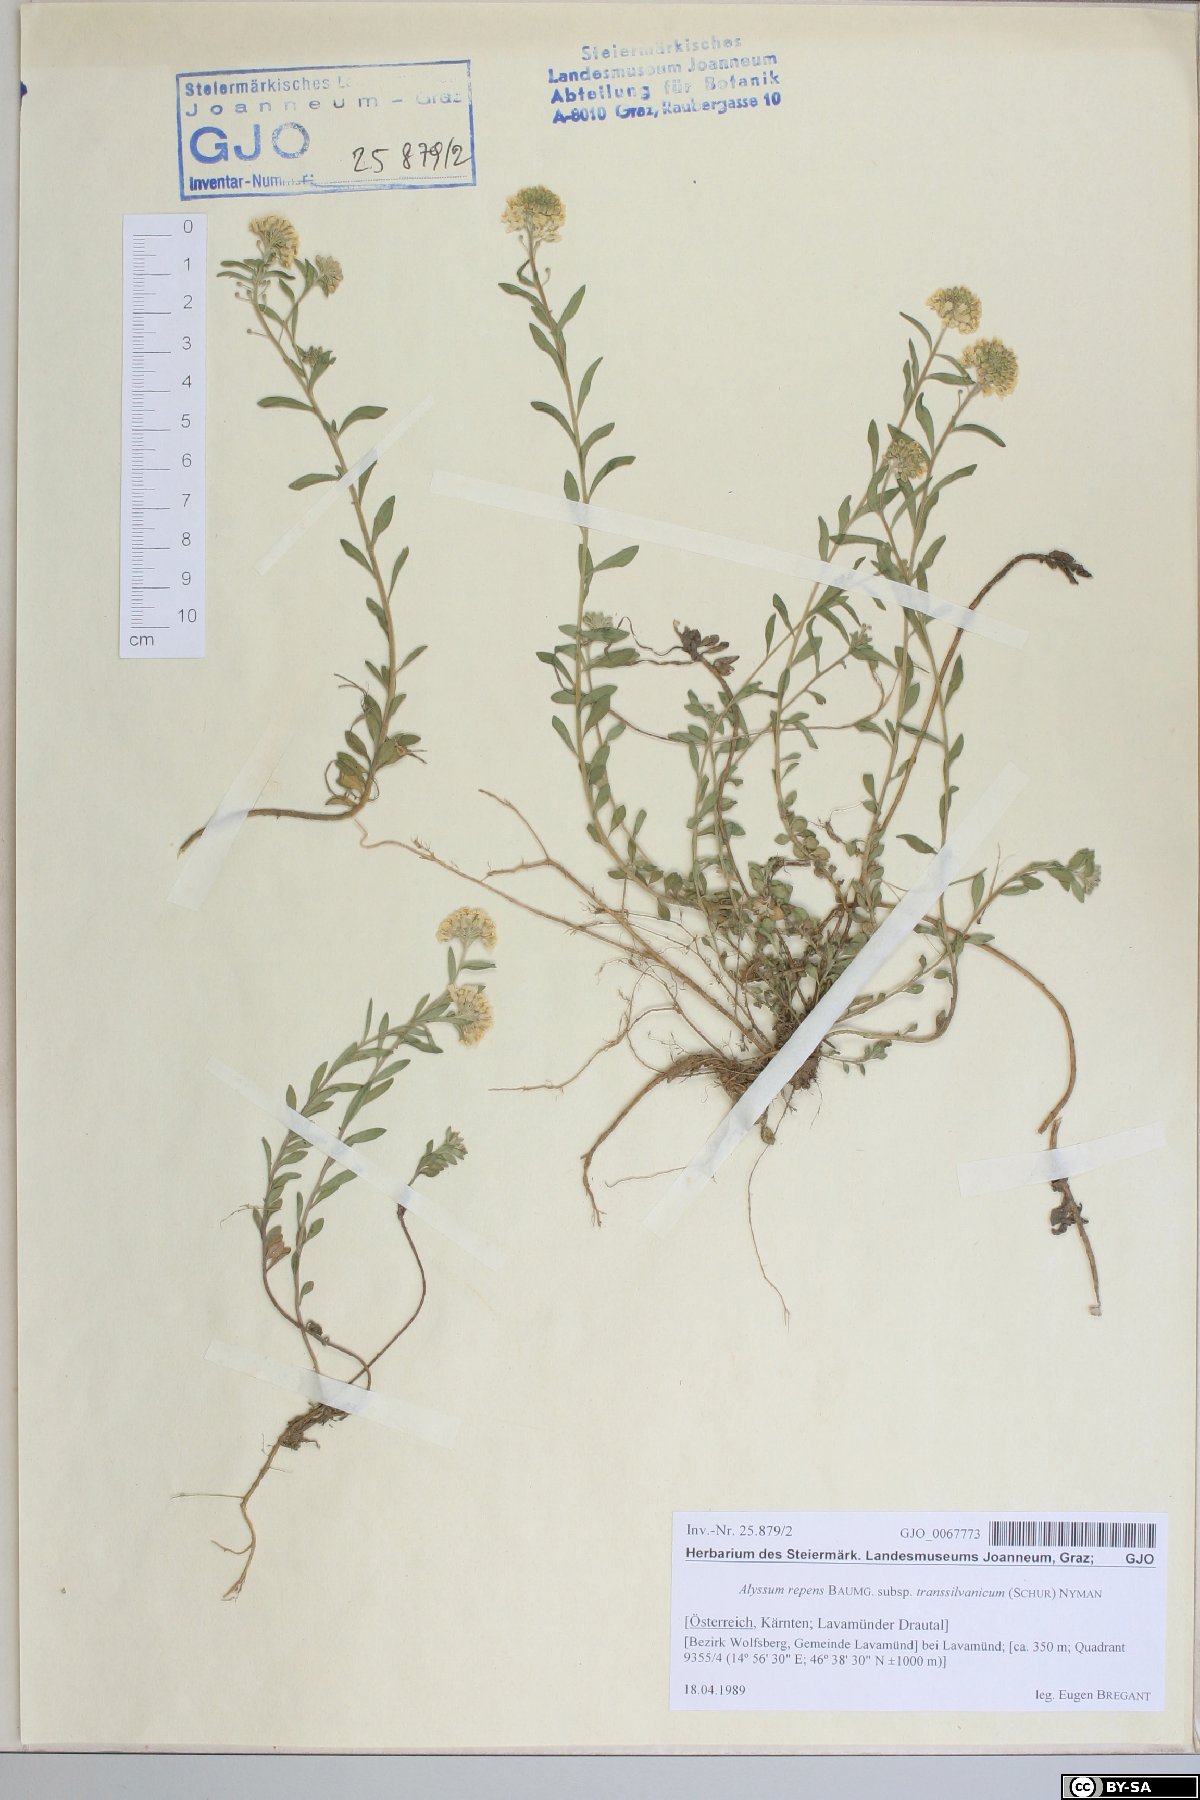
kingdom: Plantae
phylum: Tracheophyta
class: Magnoliopsida
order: Brassicales
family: Brassicaceae
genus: Alyssum
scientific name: Alyssum repens
